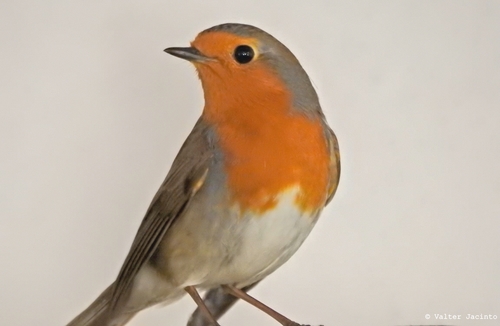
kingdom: Animalia
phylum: Chordata
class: Aves
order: Passeriformes
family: Muscicapidae
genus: Erithacus
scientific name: Erithacus rubecula
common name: European robin
